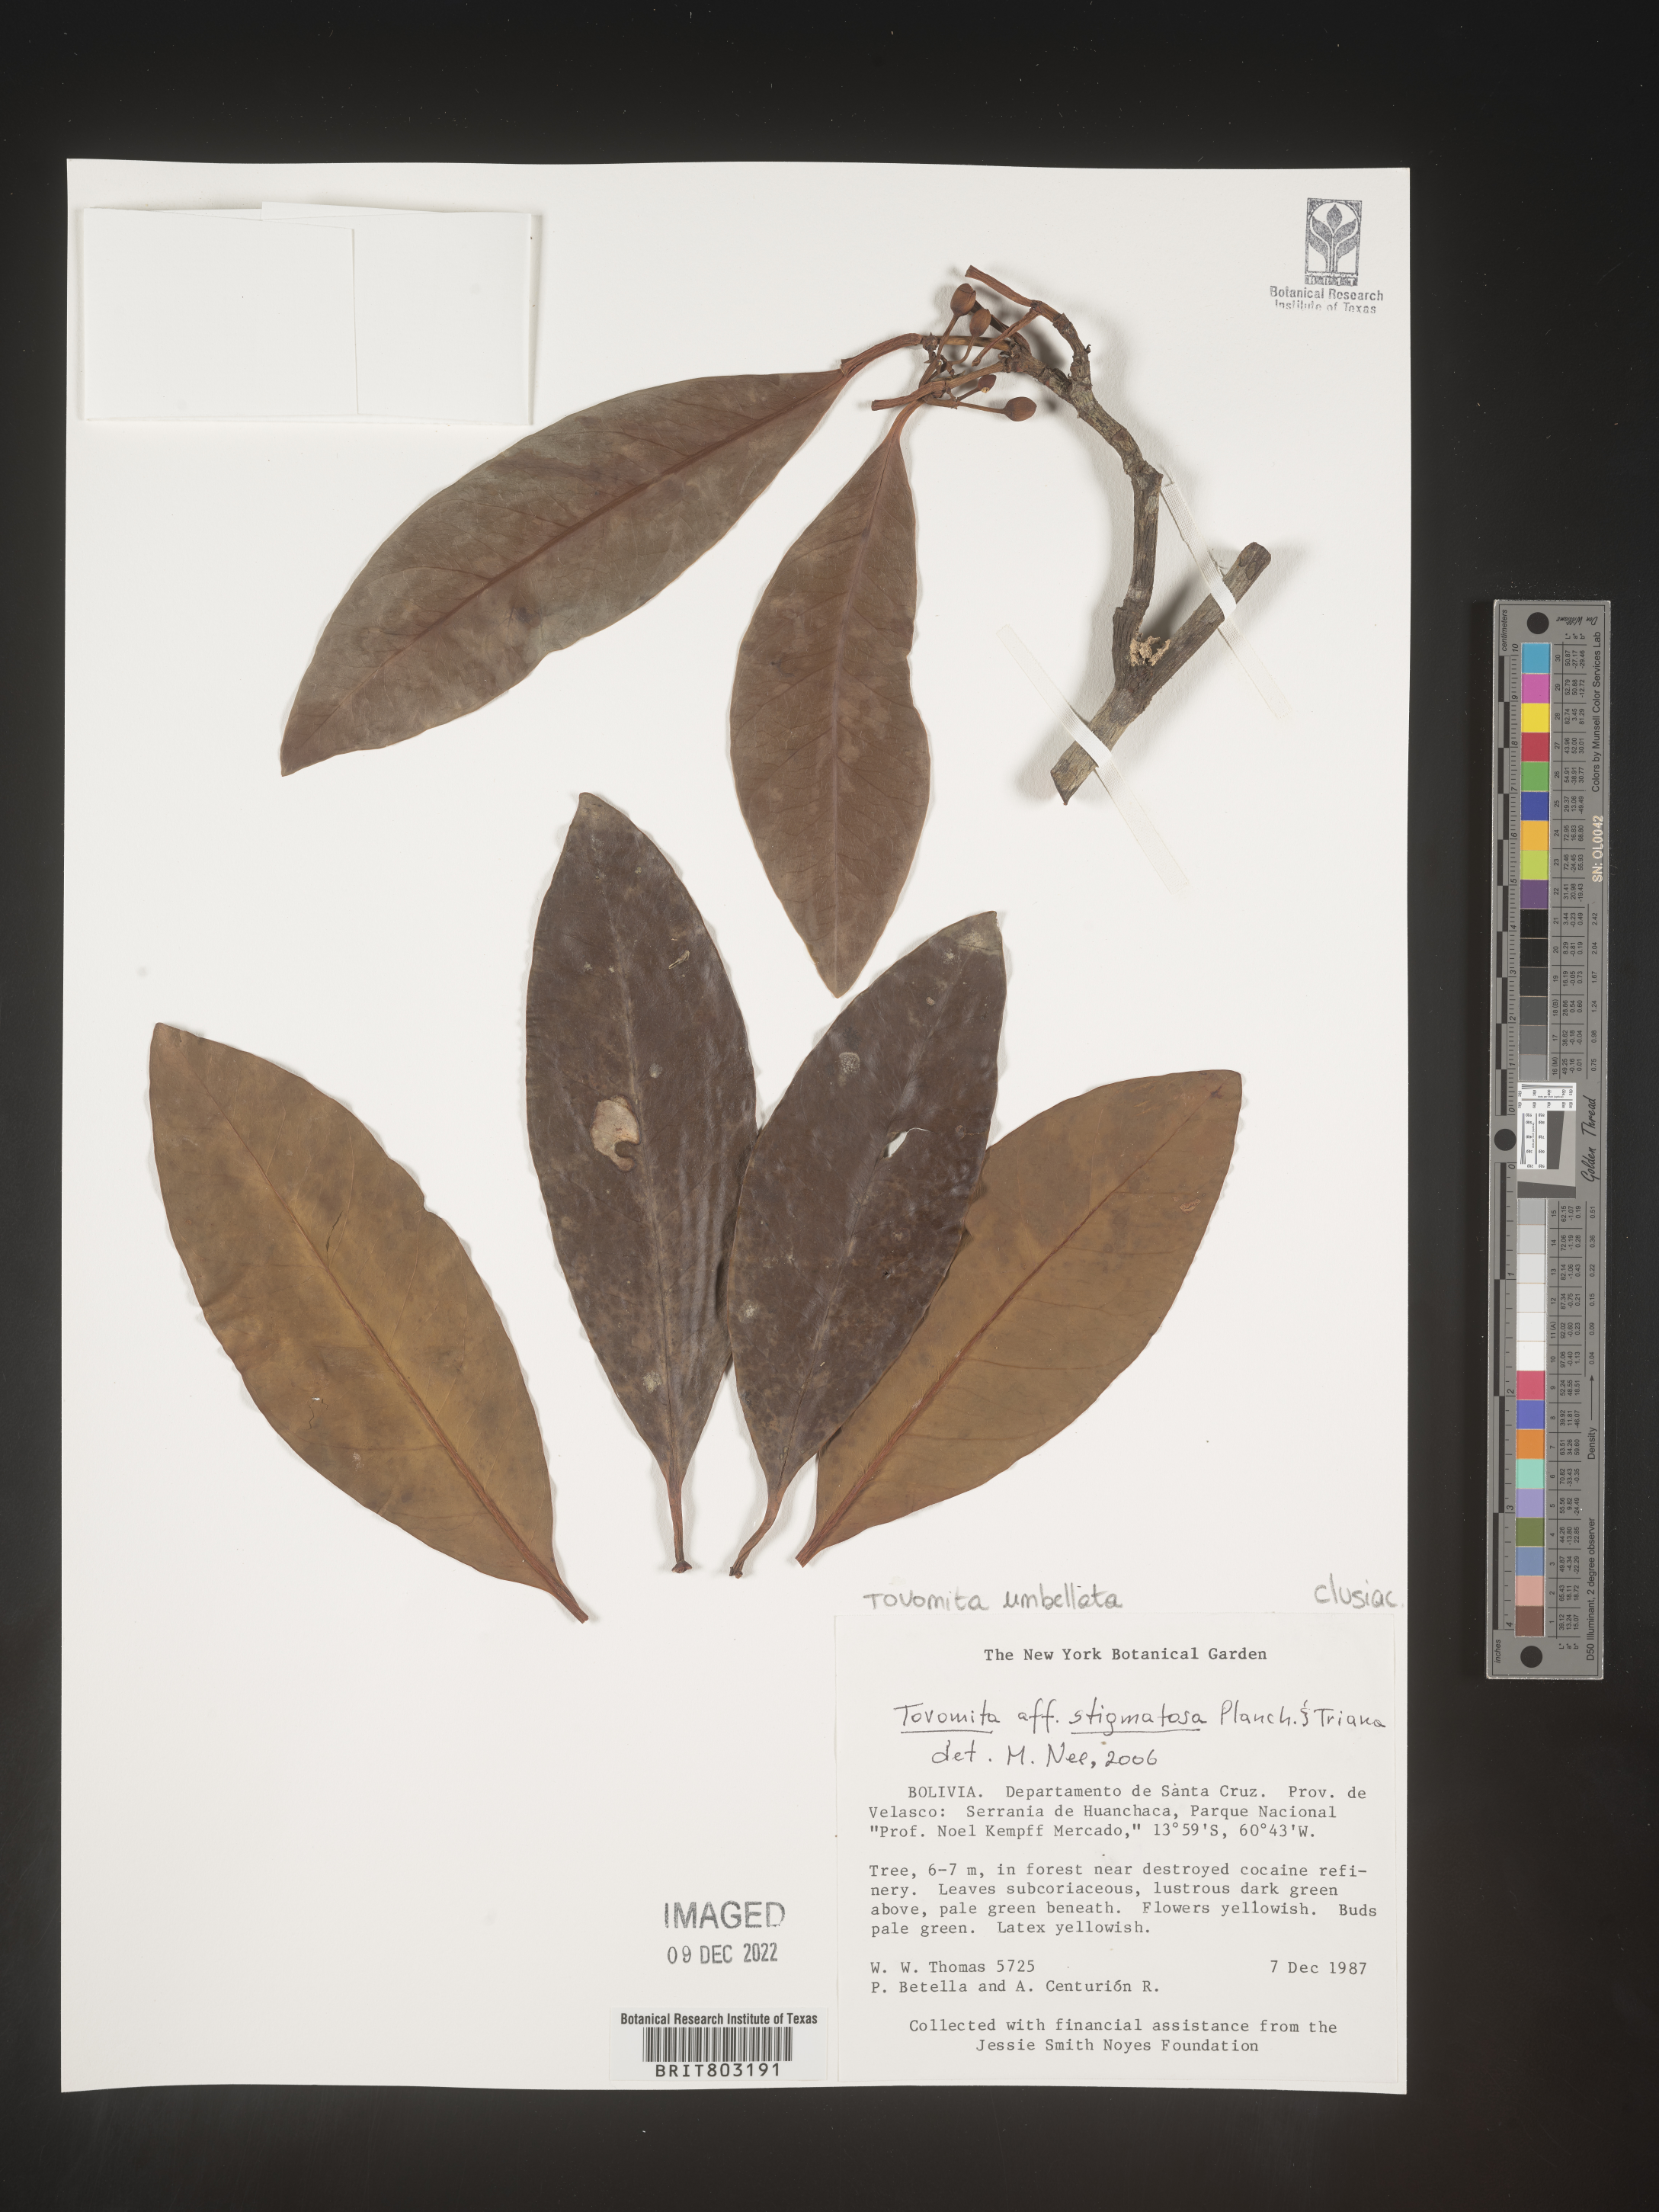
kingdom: Plantae
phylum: Tracheophyta
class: Magnoliopsida
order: Malpighiales
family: Clusiaceae
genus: Tovomita
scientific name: Tovomita
